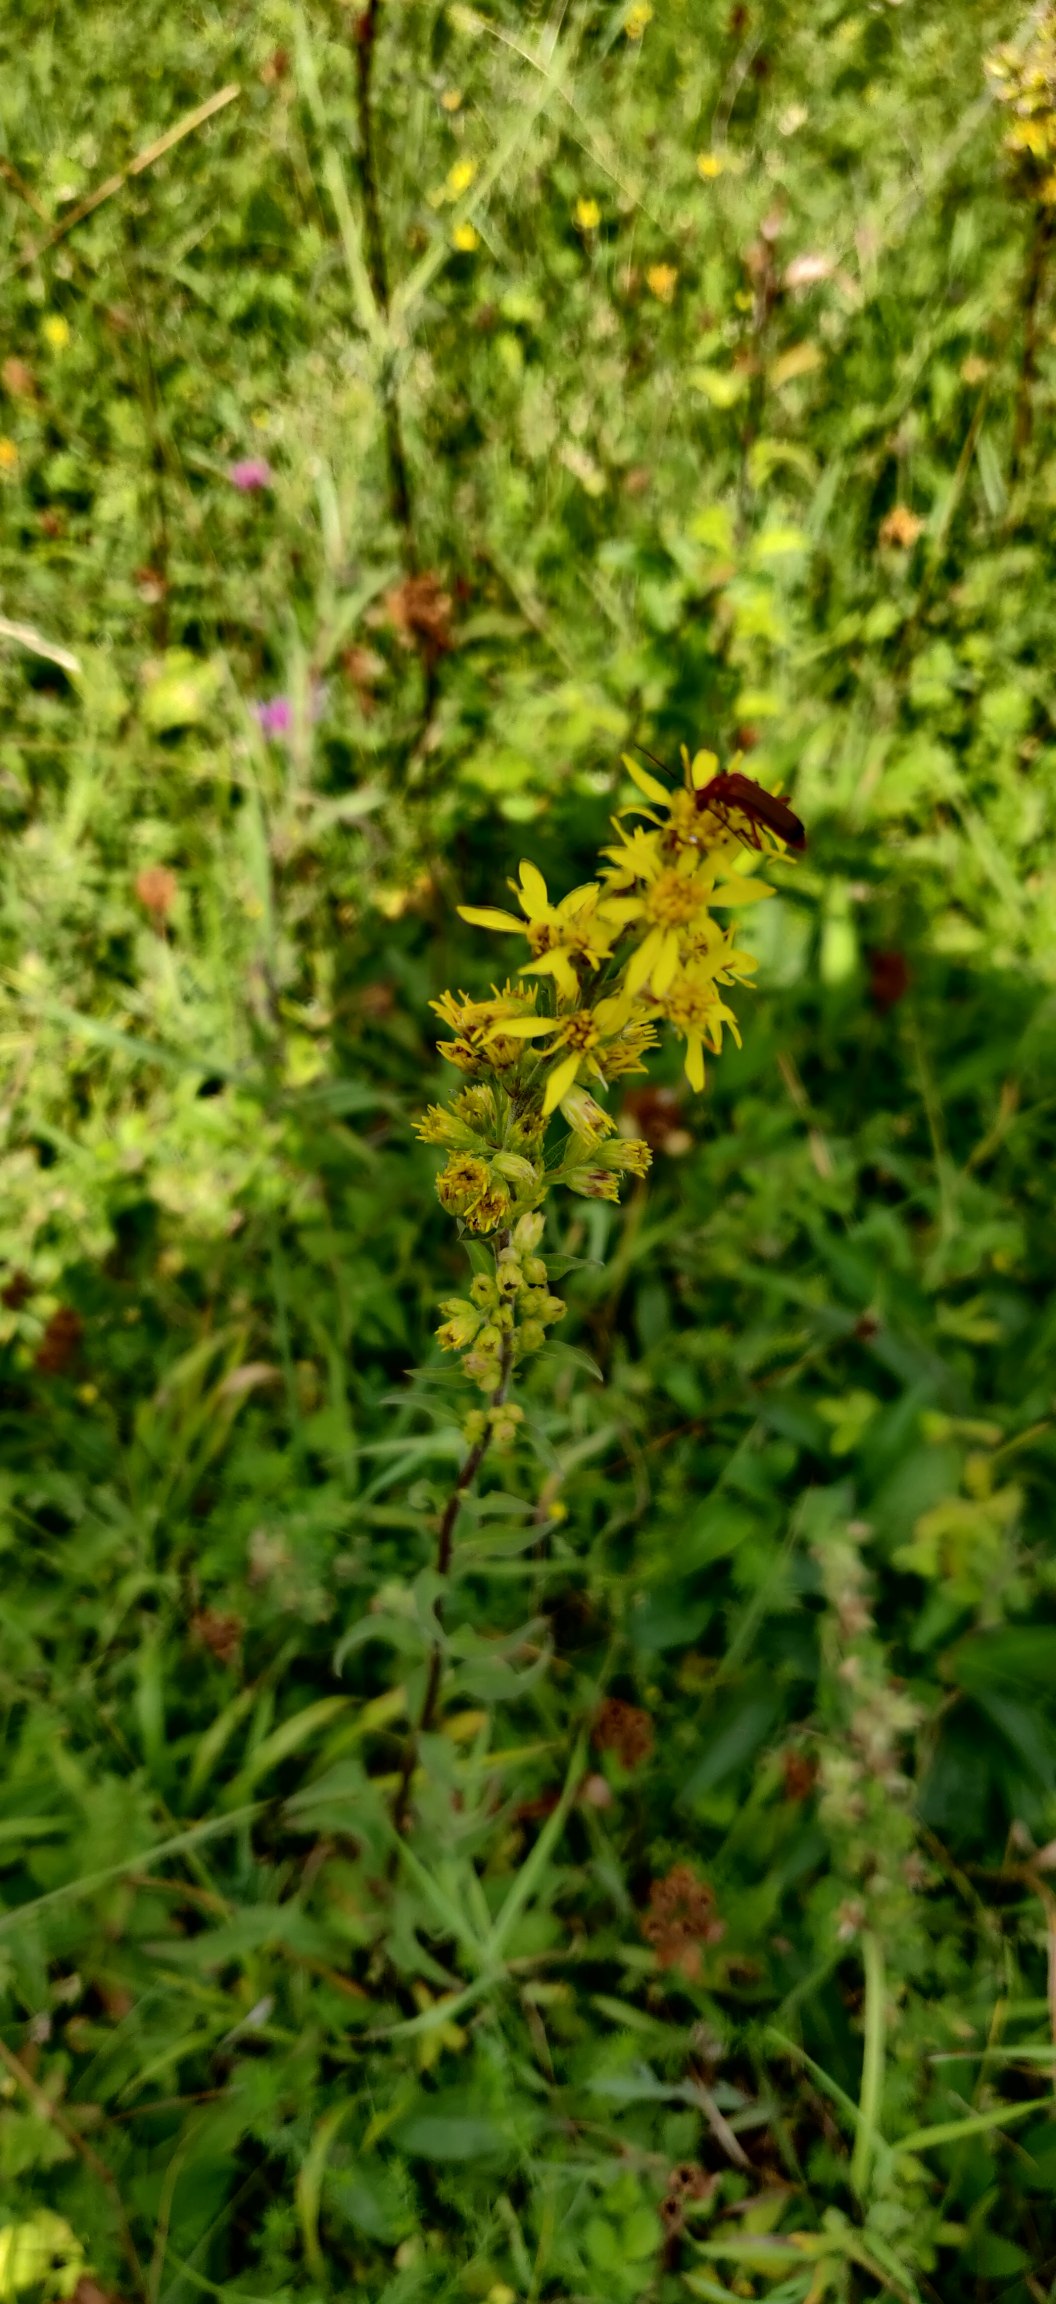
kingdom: Plantae
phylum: Tracheophyta
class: Magnoliopsida
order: Asterales
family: Asteraceae
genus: Solidago
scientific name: Solidago virgaurea
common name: Almindelig gyldenris
